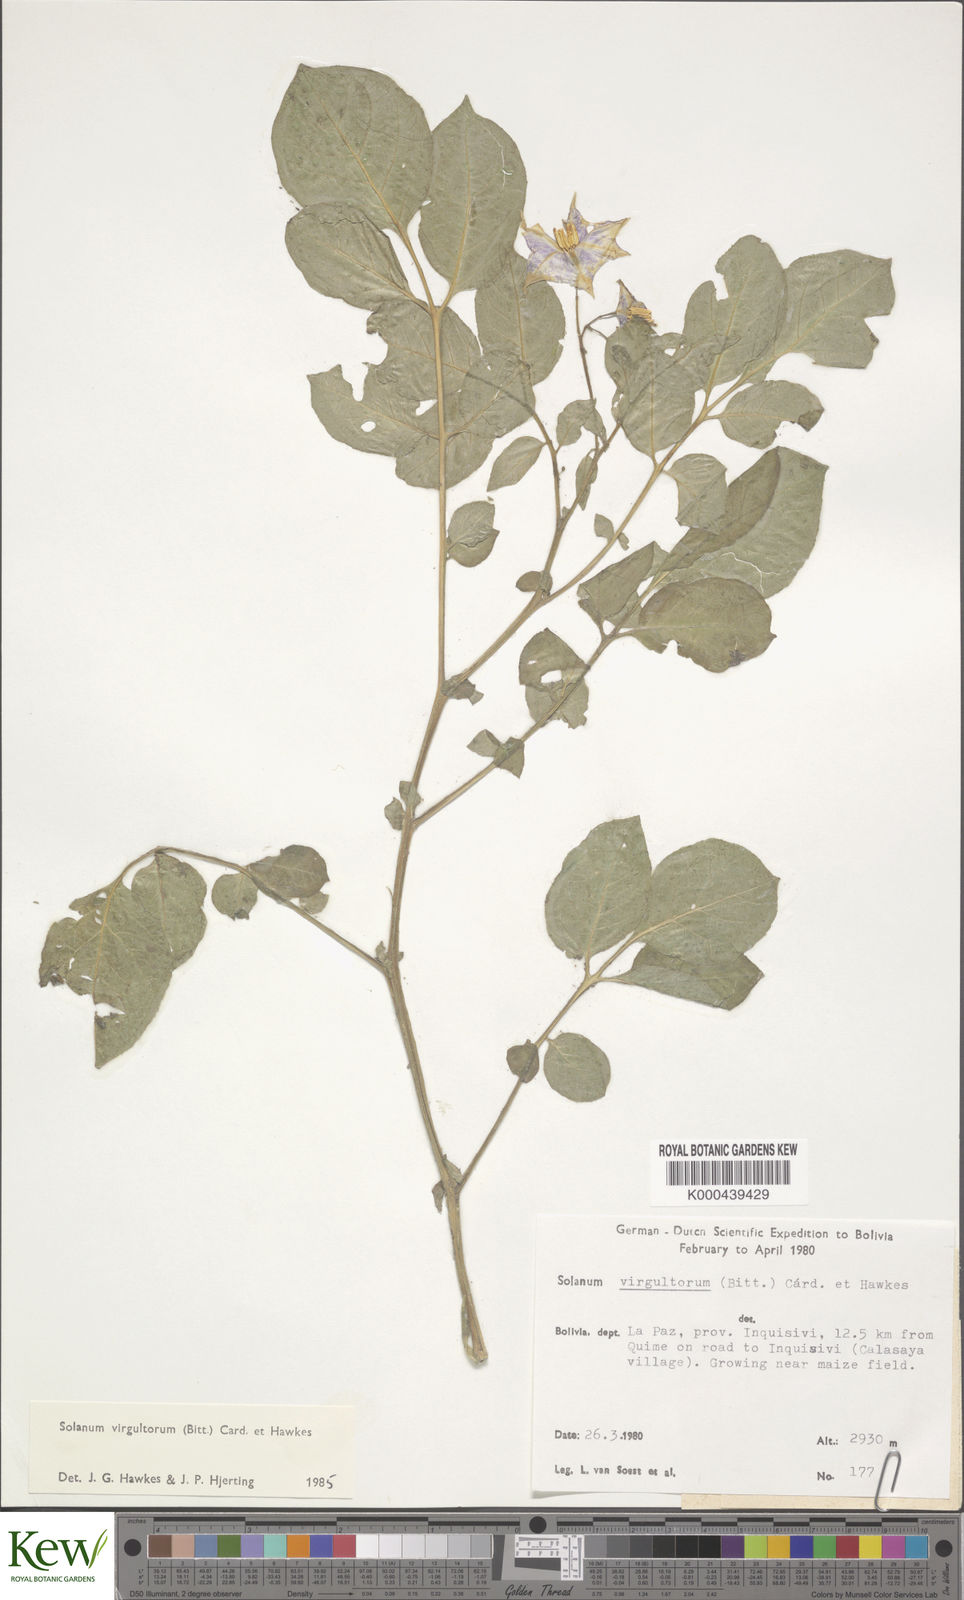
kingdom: Plantae
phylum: Tracheophyta
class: Magnoliopsida
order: Solanales
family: Solanaceae
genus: Solanum
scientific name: Solanum brevicaule
